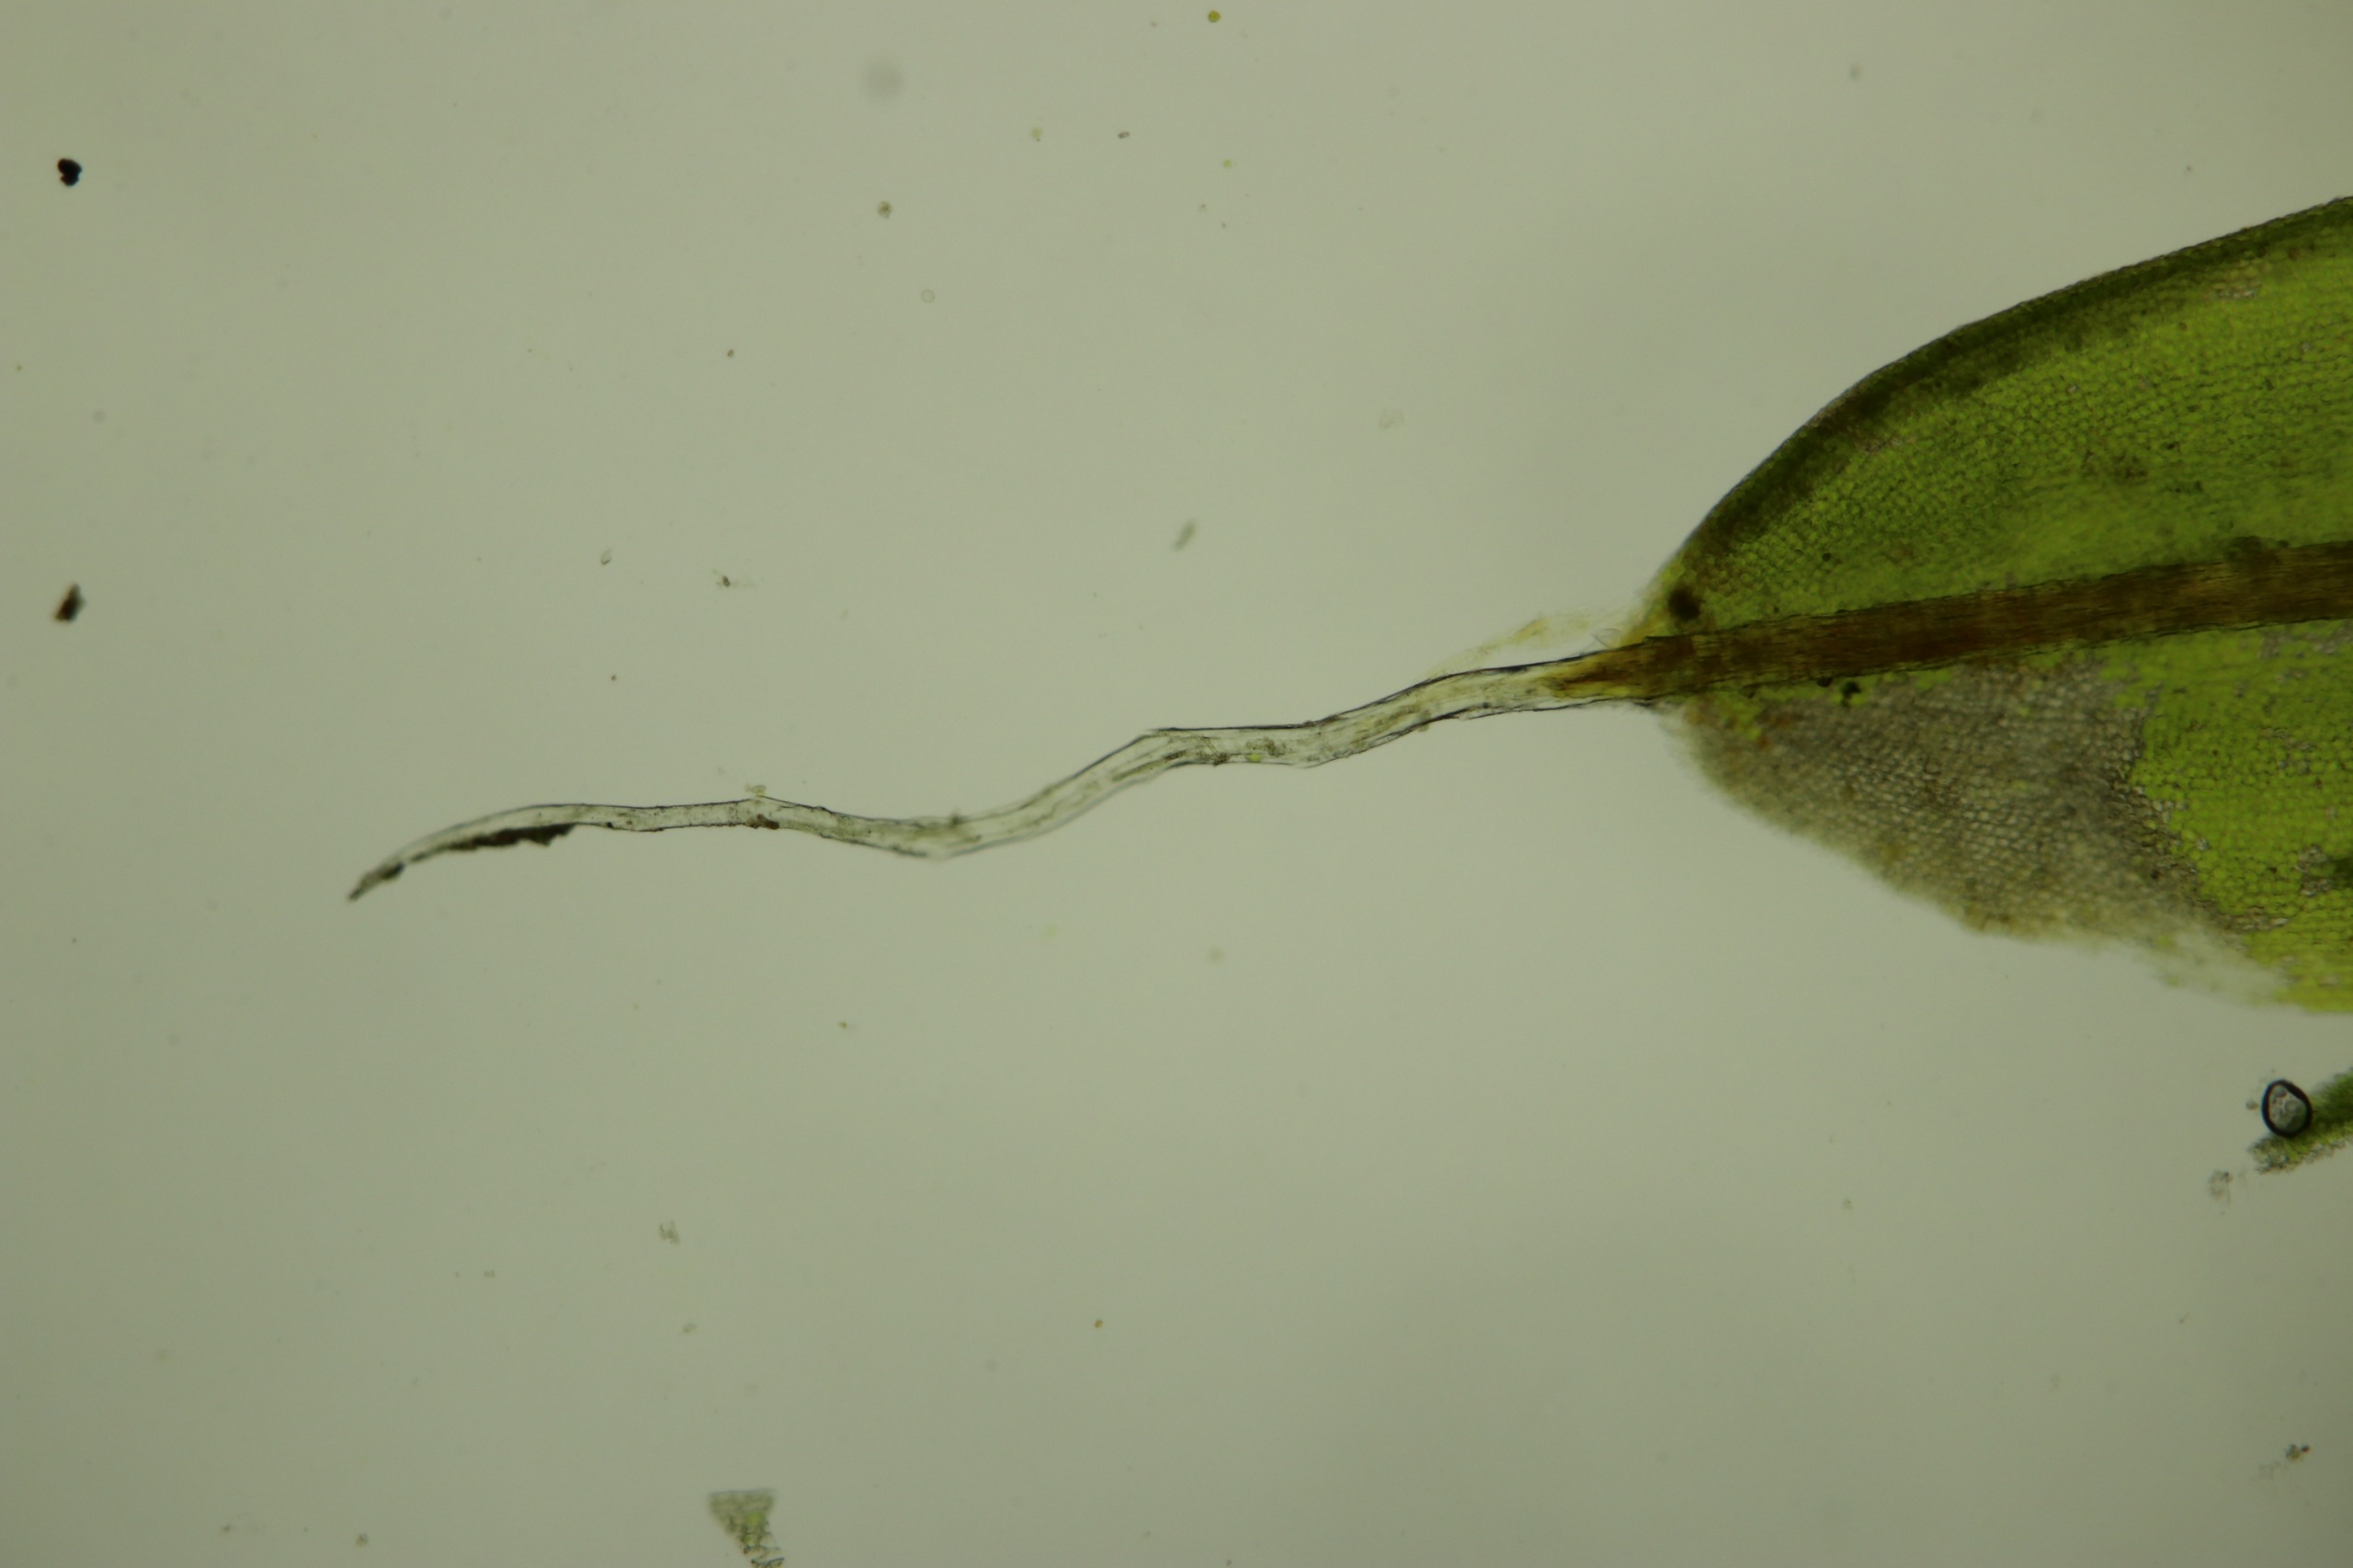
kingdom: Plantae
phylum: Bryophyta
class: Bryopsida
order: Pottiales
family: Pottiaceae
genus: Syntrichia
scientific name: Syntrichia laevipila
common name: Træ-hårstjerne
